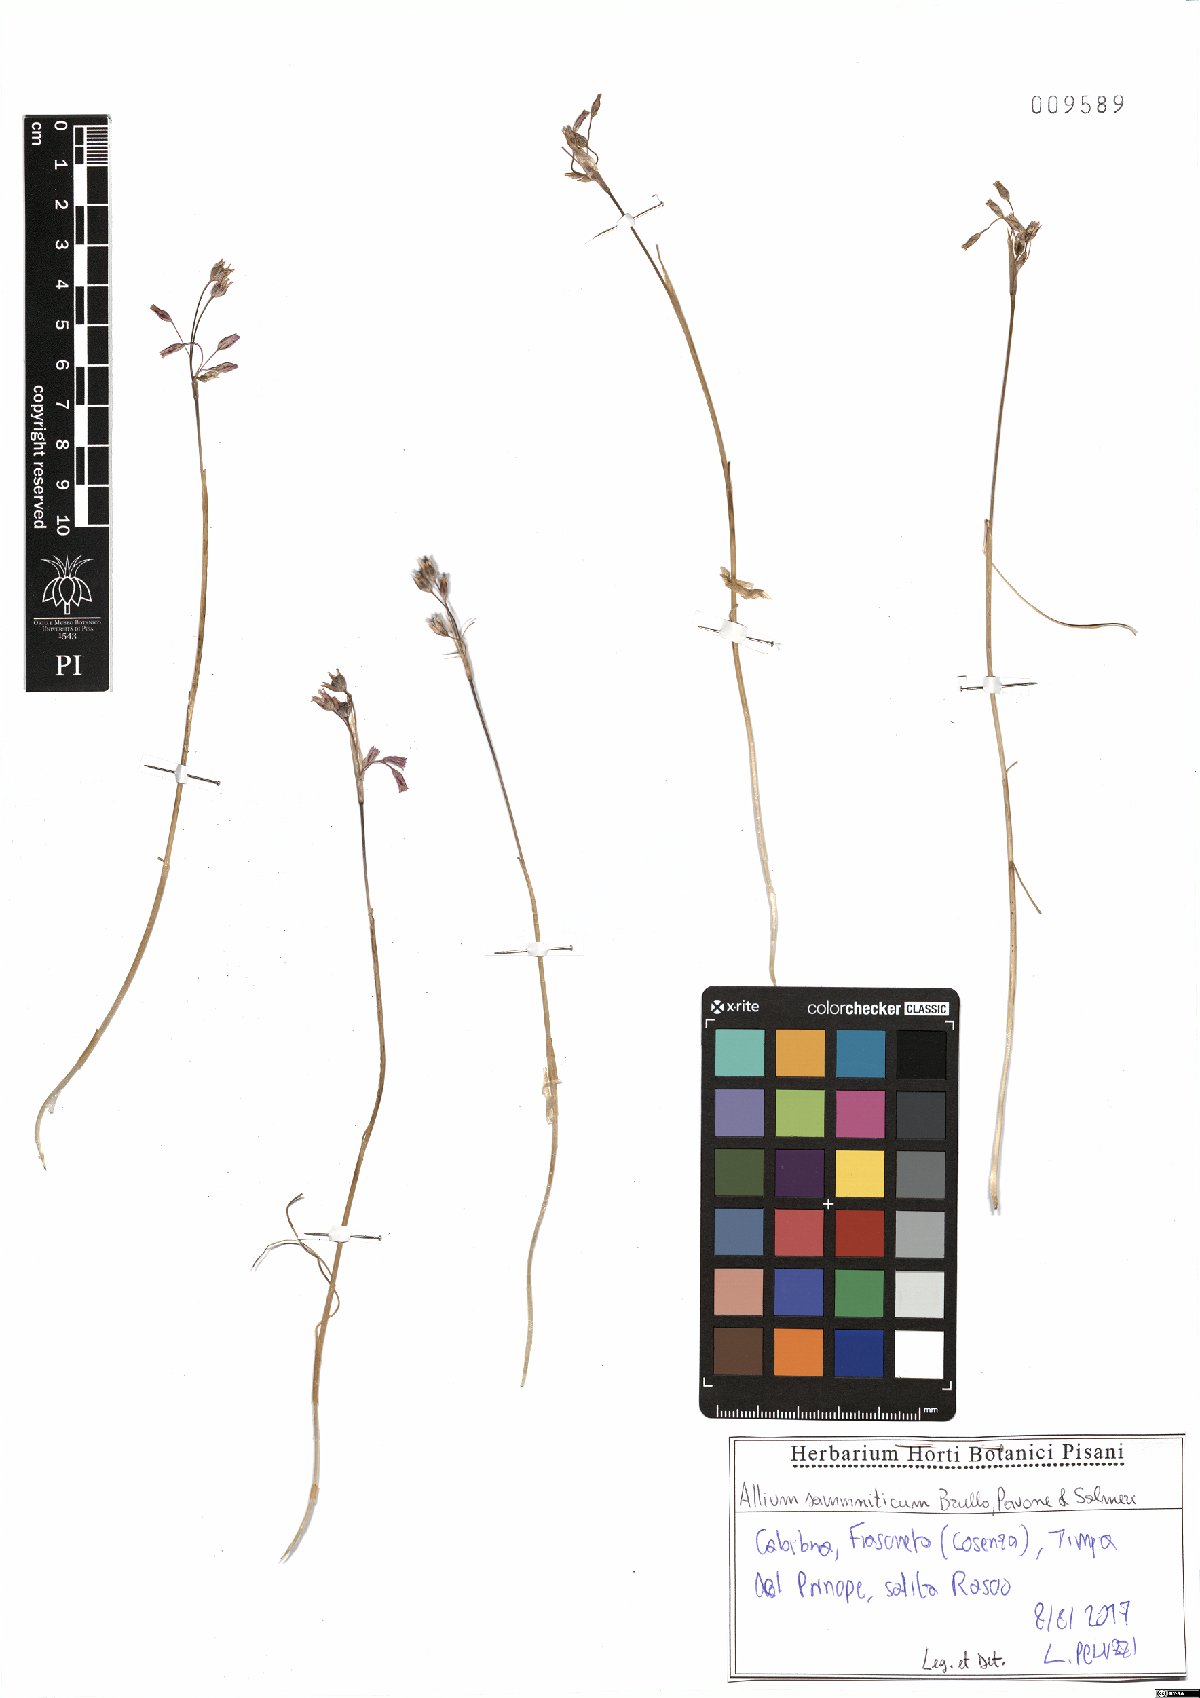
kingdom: Plantae
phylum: Tracheophyta
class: Liliopsida
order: Asparagales
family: Amaryllidaceae
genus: Allium
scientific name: Allium samniticum
